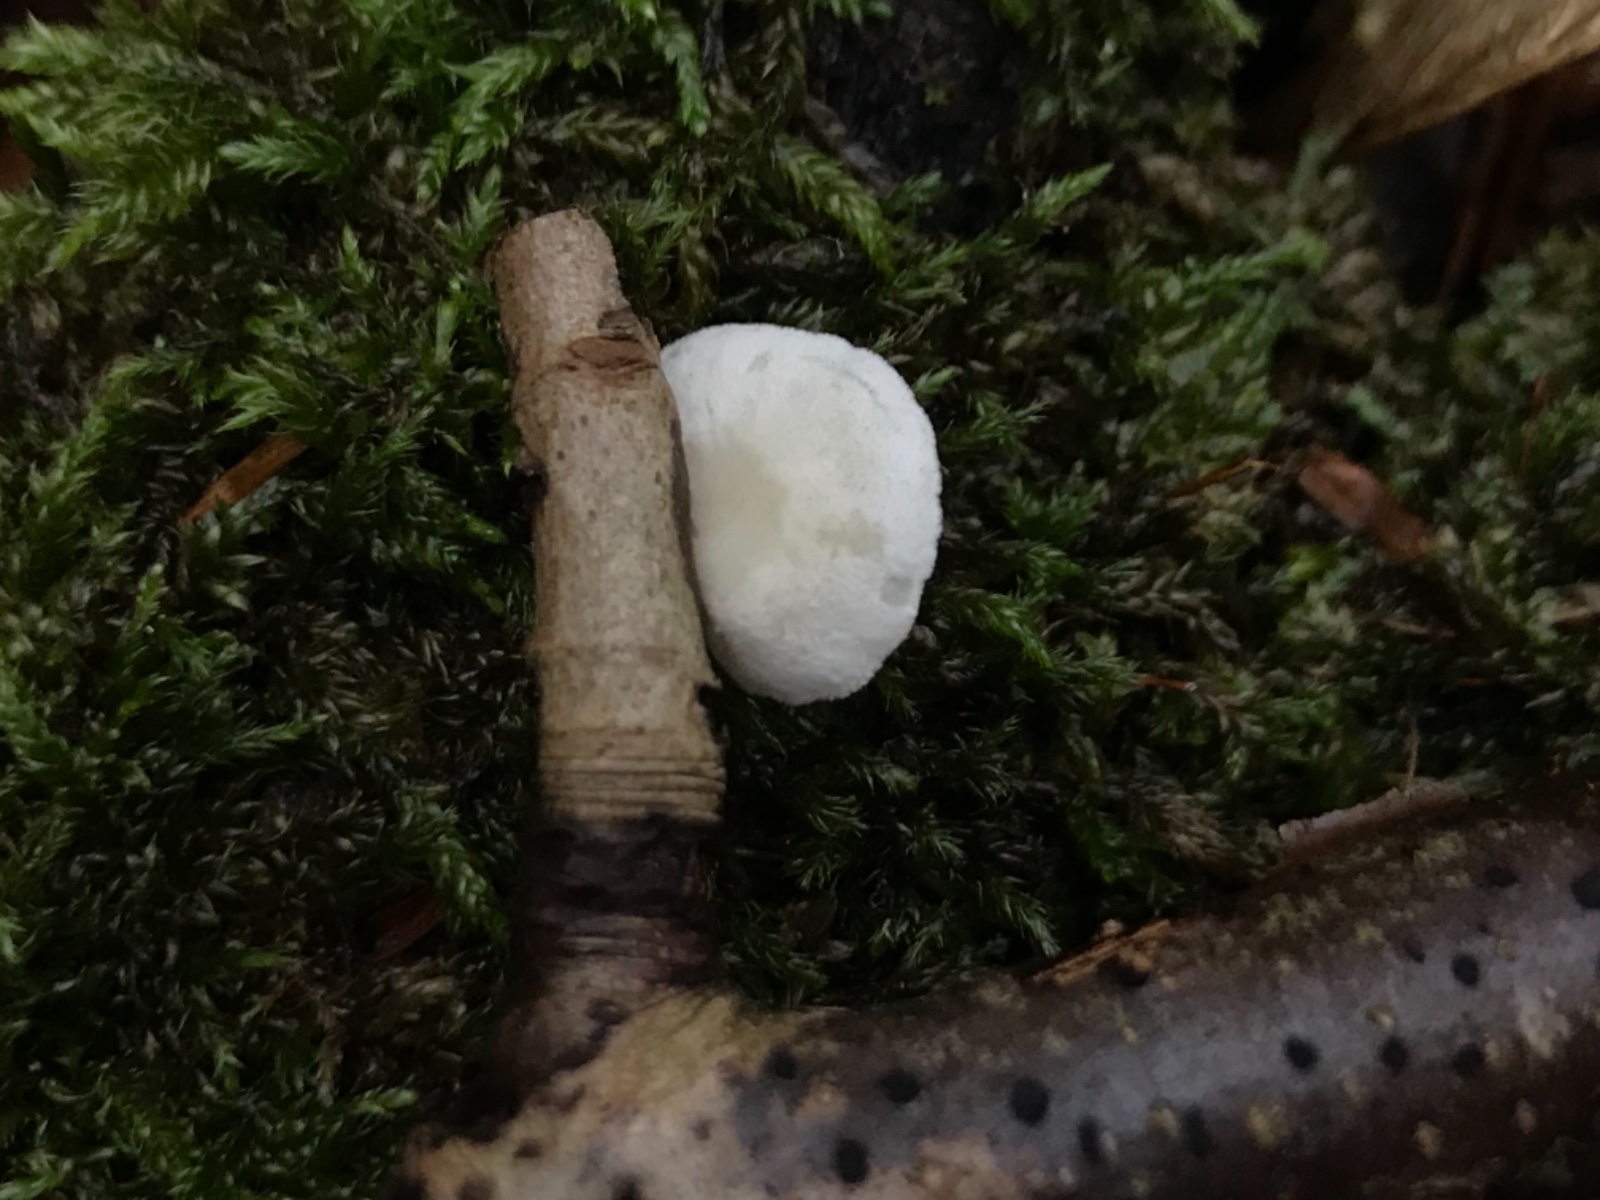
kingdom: Fungi
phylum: Basidiomycota
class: Agaricomycetes
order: Agaricales
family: Crepidotaceae
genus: Crepidotus
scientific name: Crepidotus
